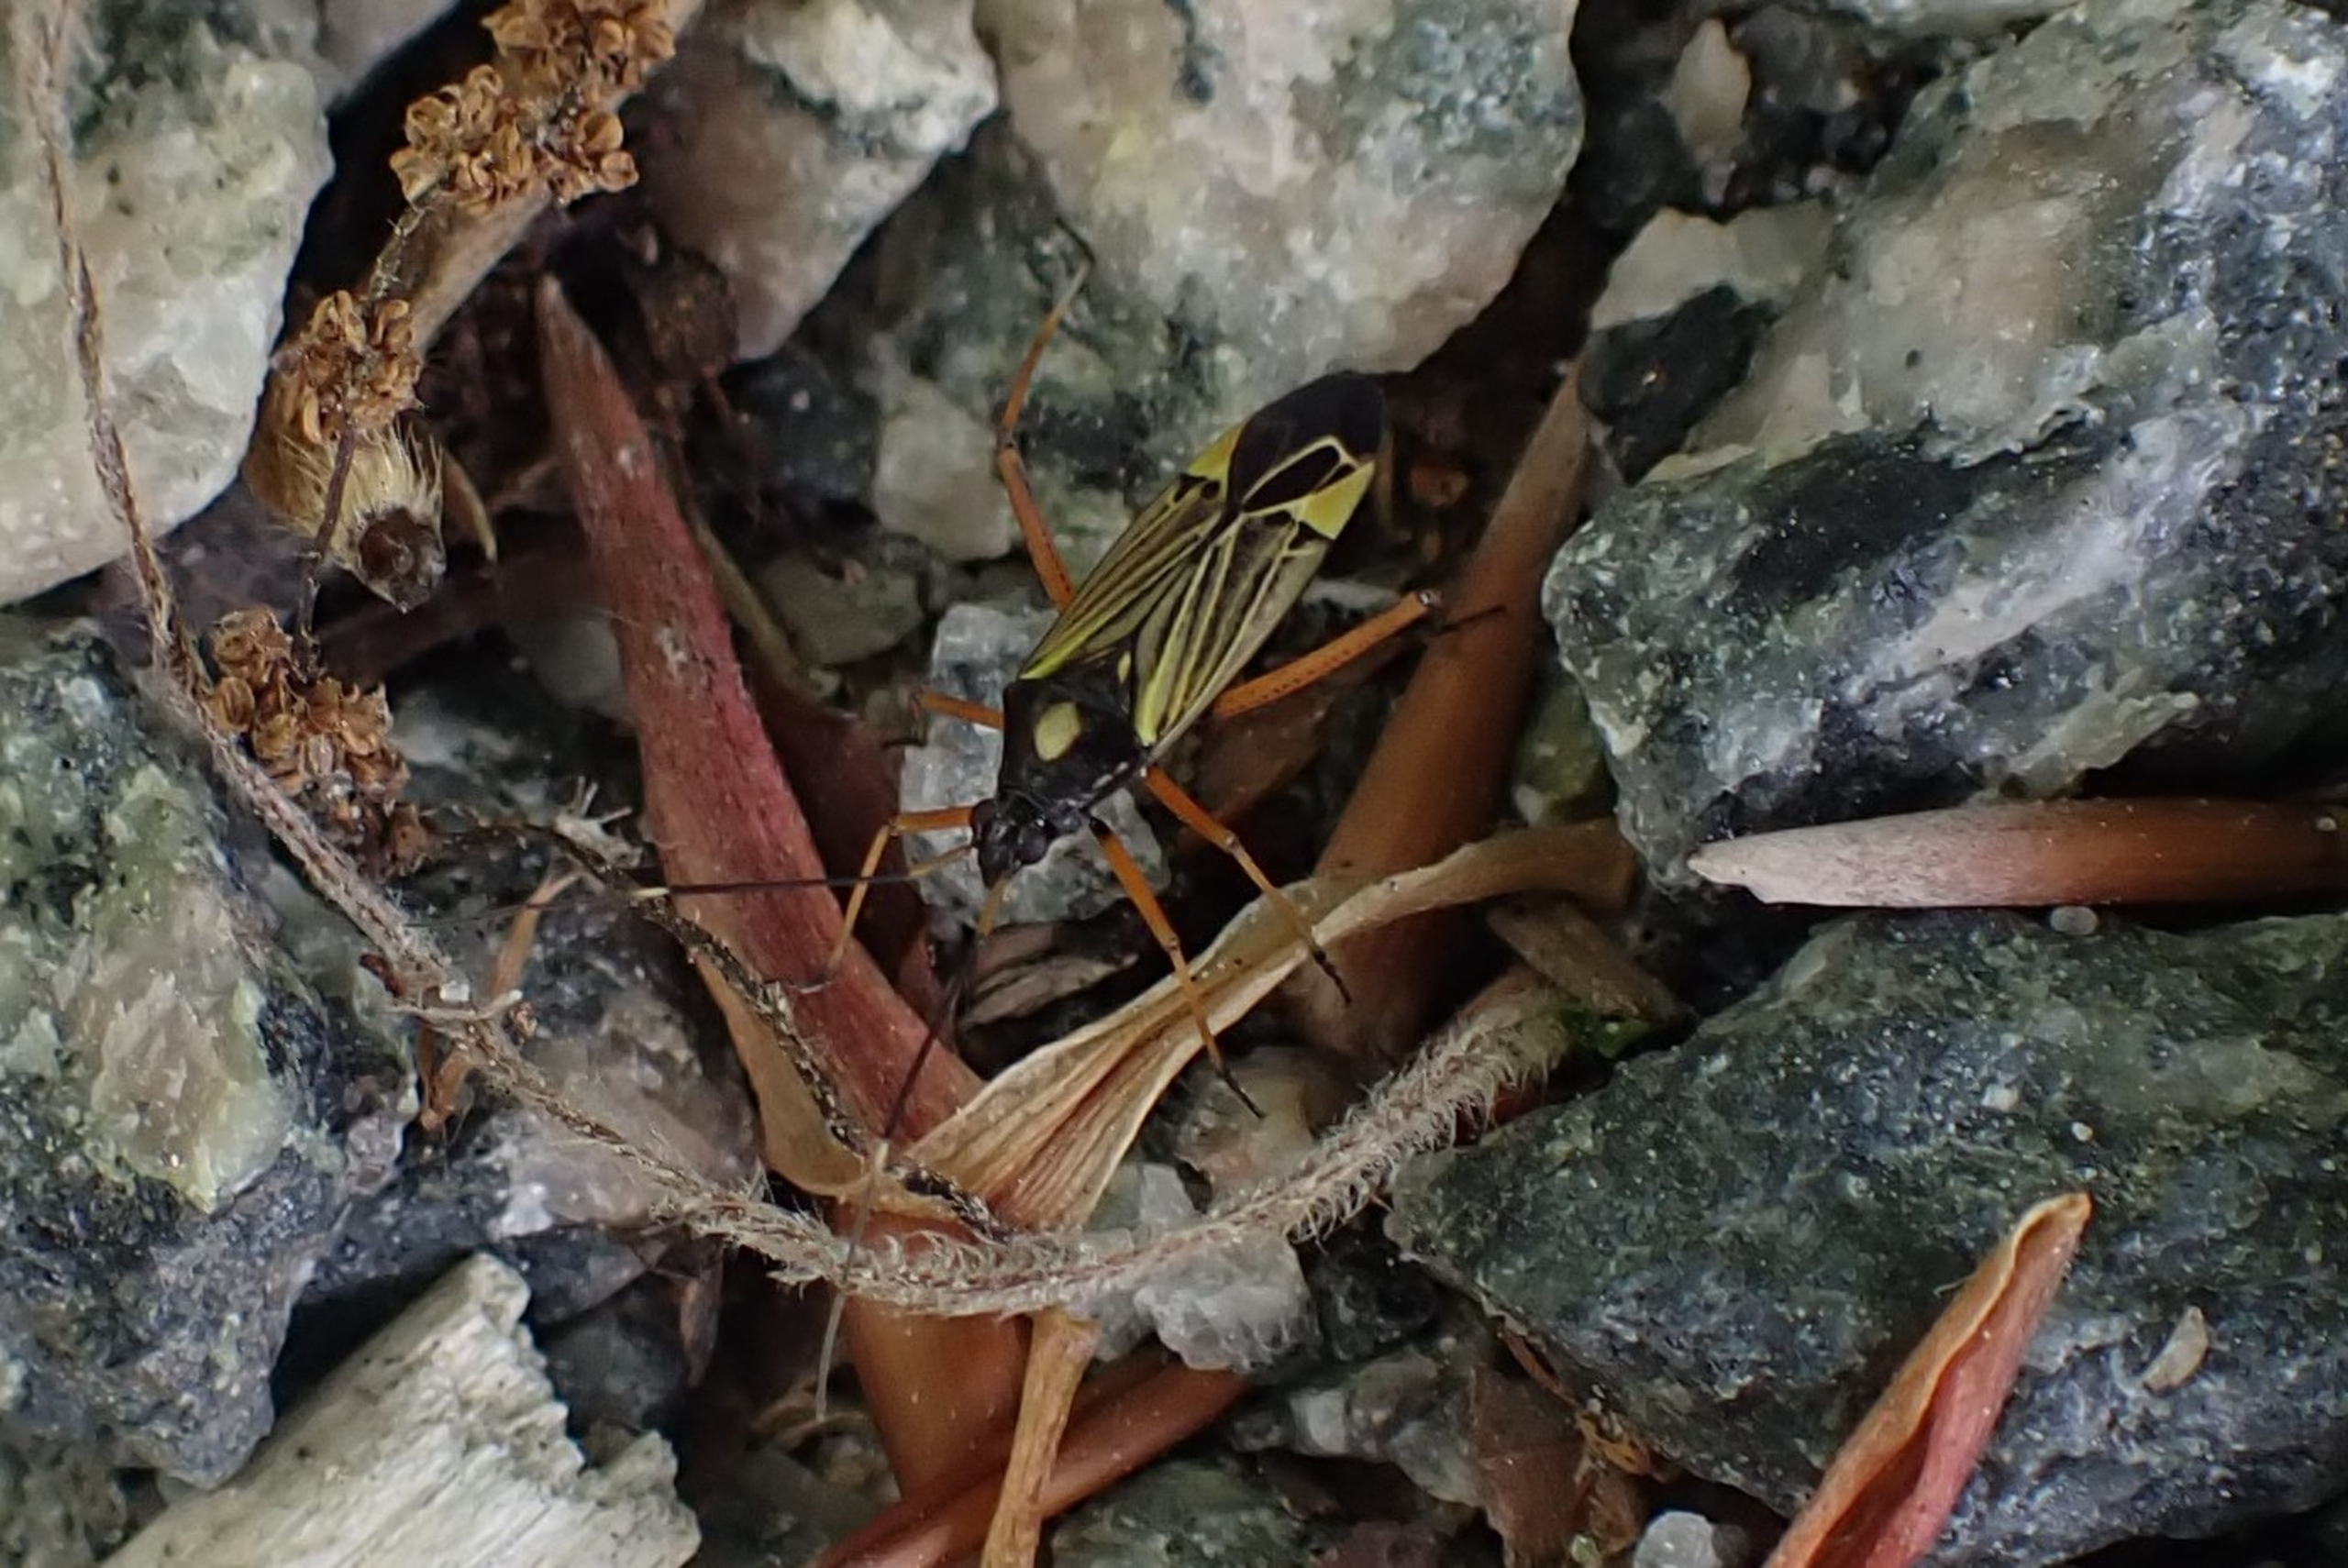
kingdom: Animalia
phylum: Arthropoda
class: Insecta
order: Hemiptera
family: Miridae
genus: Miris
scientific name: Miris striatus
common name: Gulstribet egetæge
